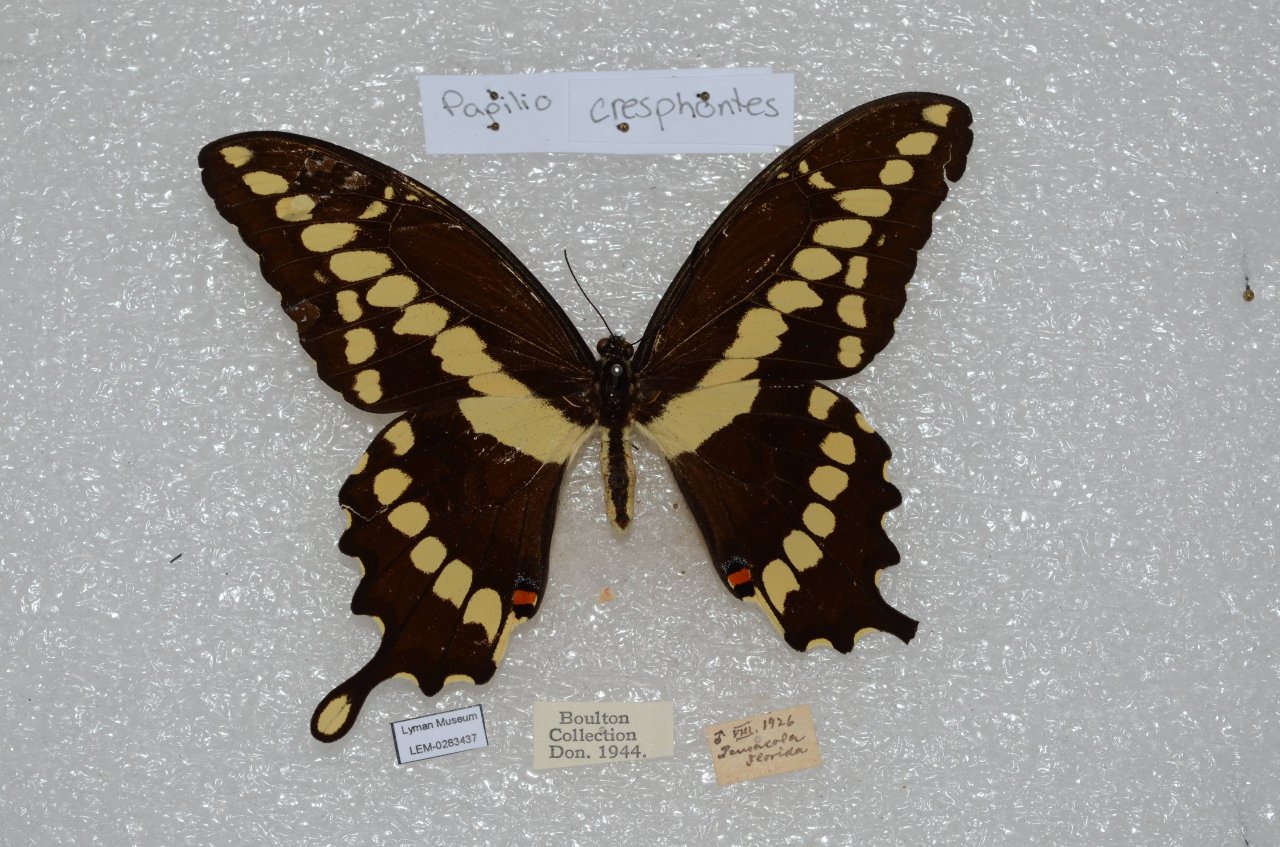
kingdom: Animalia
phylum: Arthropoda
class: Insecta
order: Lepidoptera
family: Papilionidae
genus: Papilio
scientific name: Papilio cresphontes
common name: Eastern Giant Swallowtail
